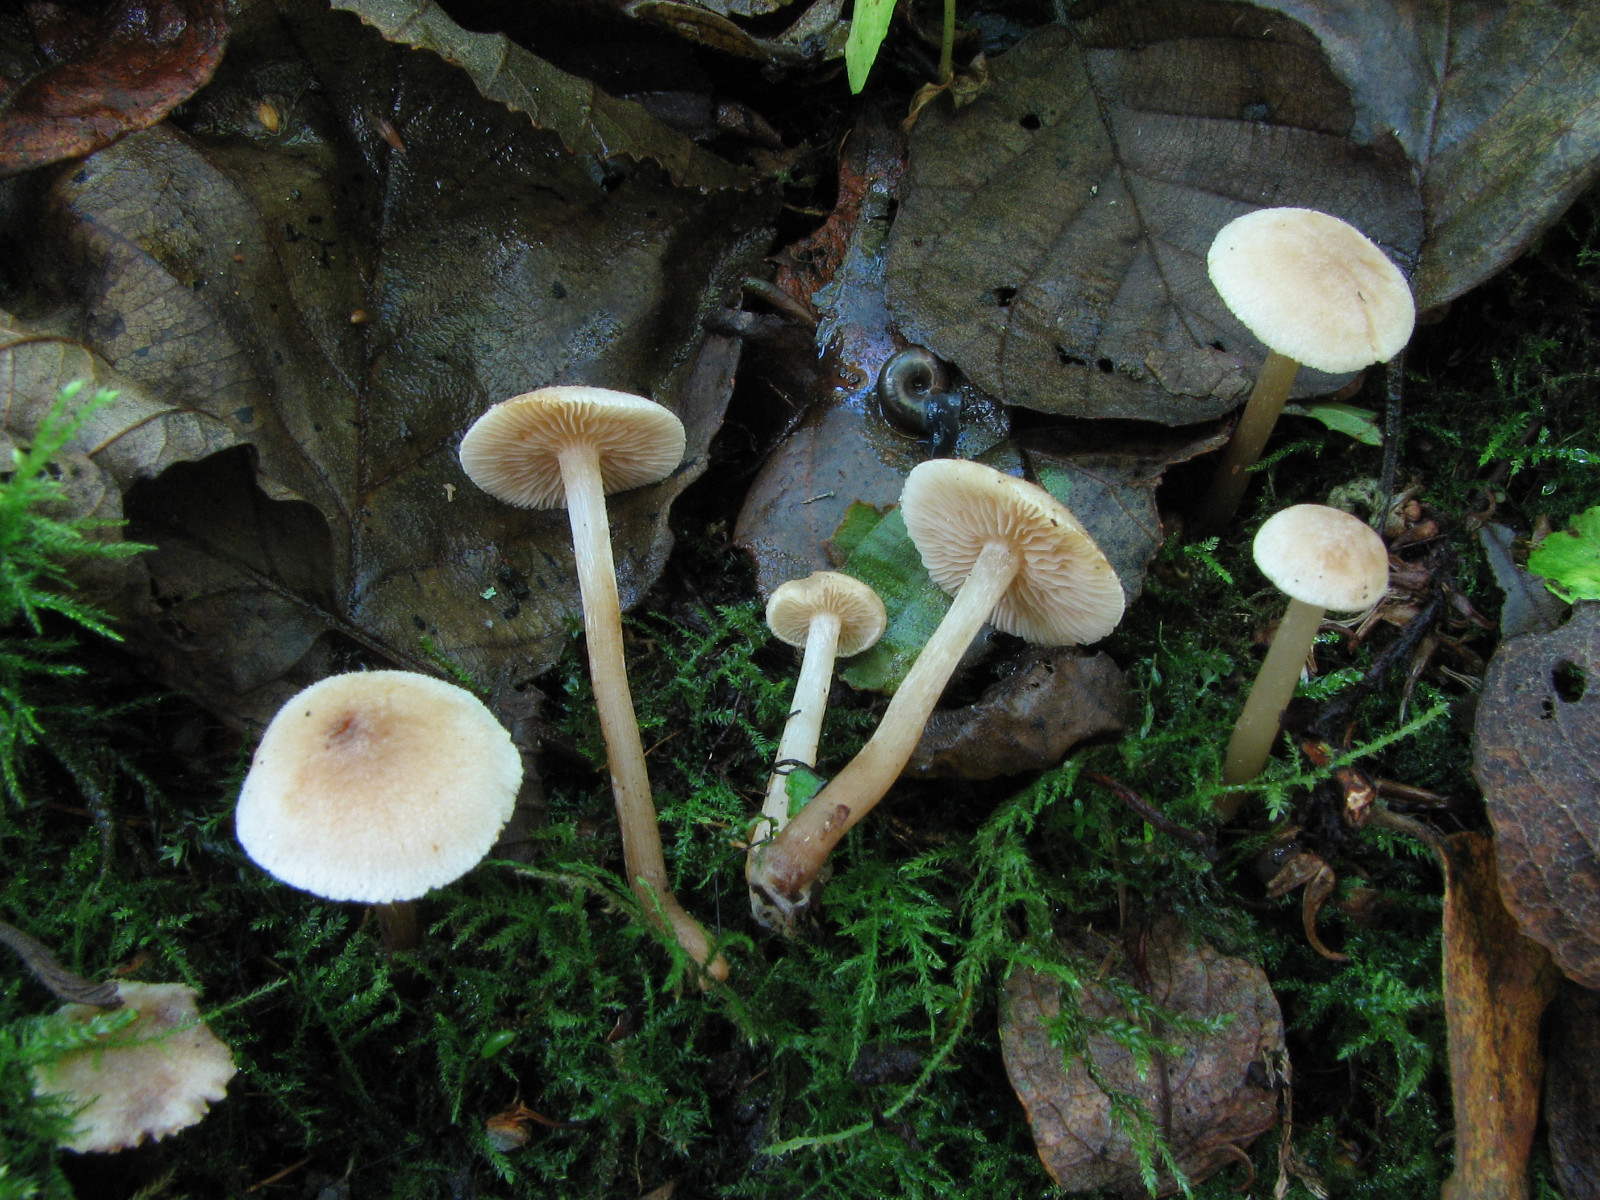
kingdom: Fungi
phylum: Basidiomycota
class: Agaricomycetes
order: Agaricales
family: Hymenogastraceae
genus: Naucoria
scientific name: Naucoria escharioides
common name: lys elle-knaphat
